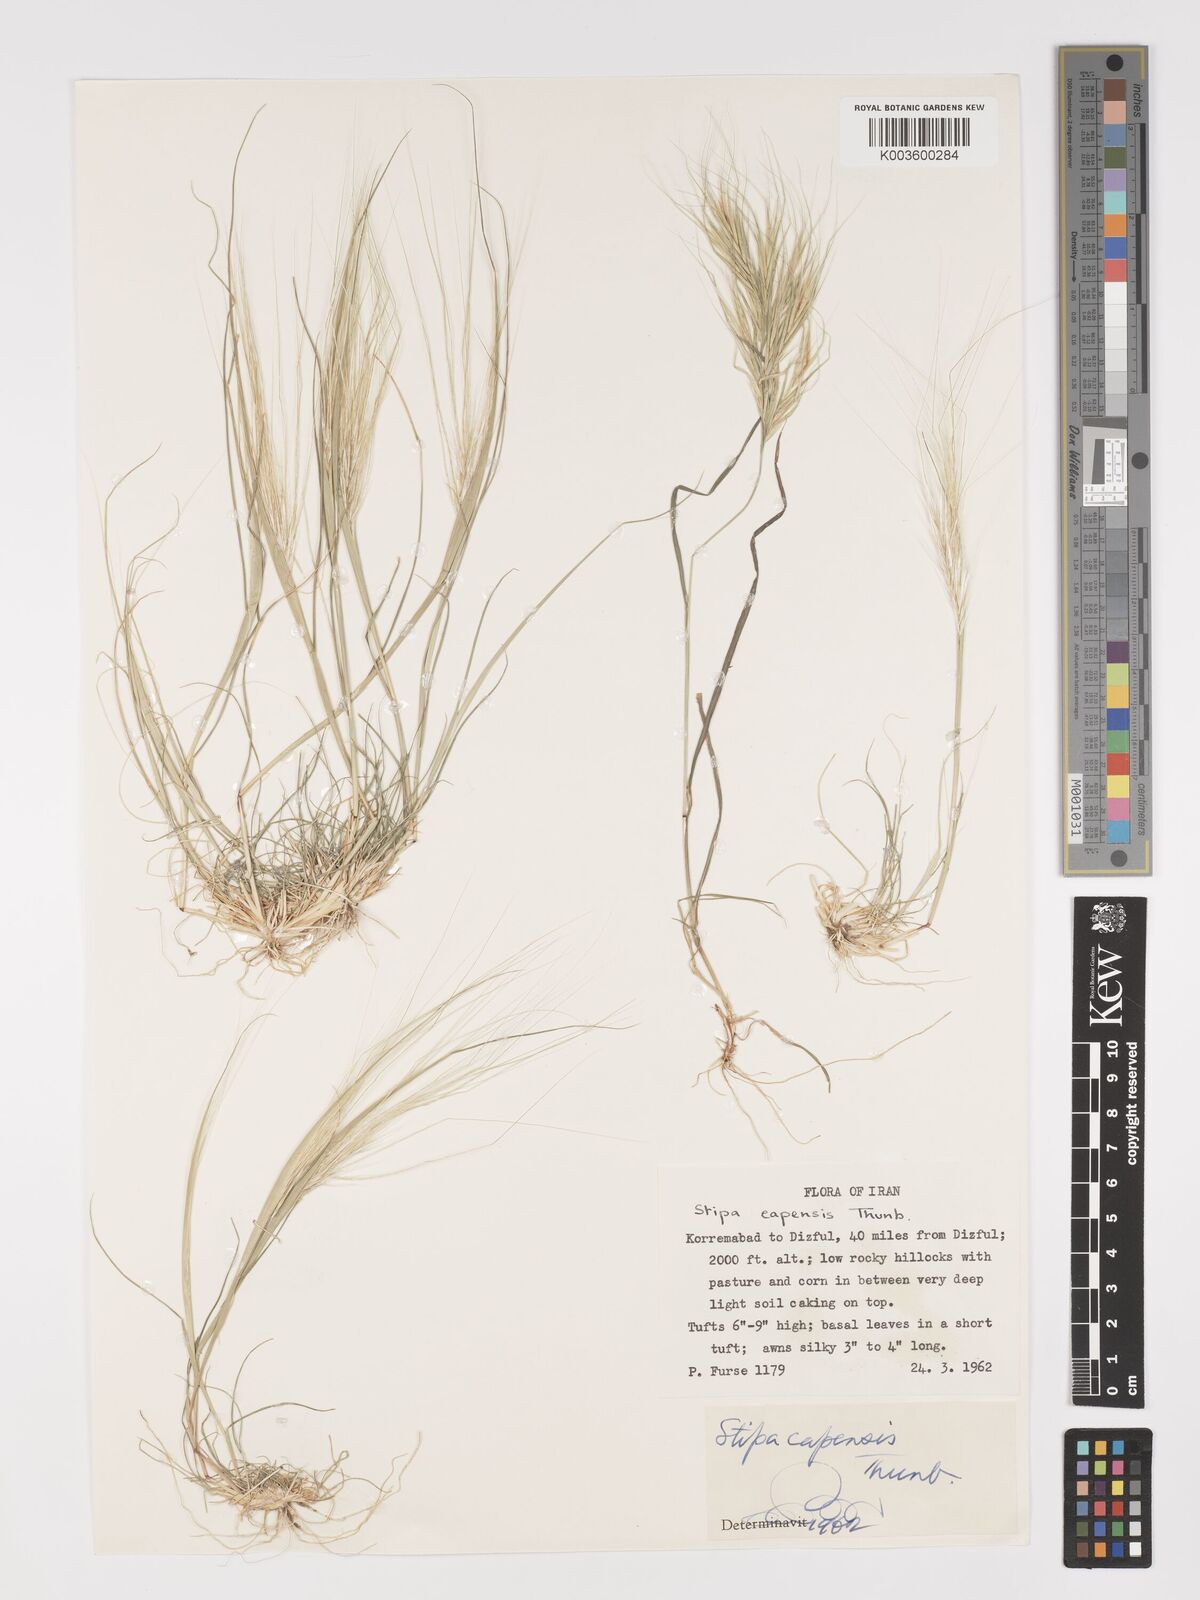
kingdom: Plantae
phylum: Tracheophyta
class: Liliopsida
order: Poales
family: Poaceae
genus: Stipellula
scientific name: Stipellula capensis
